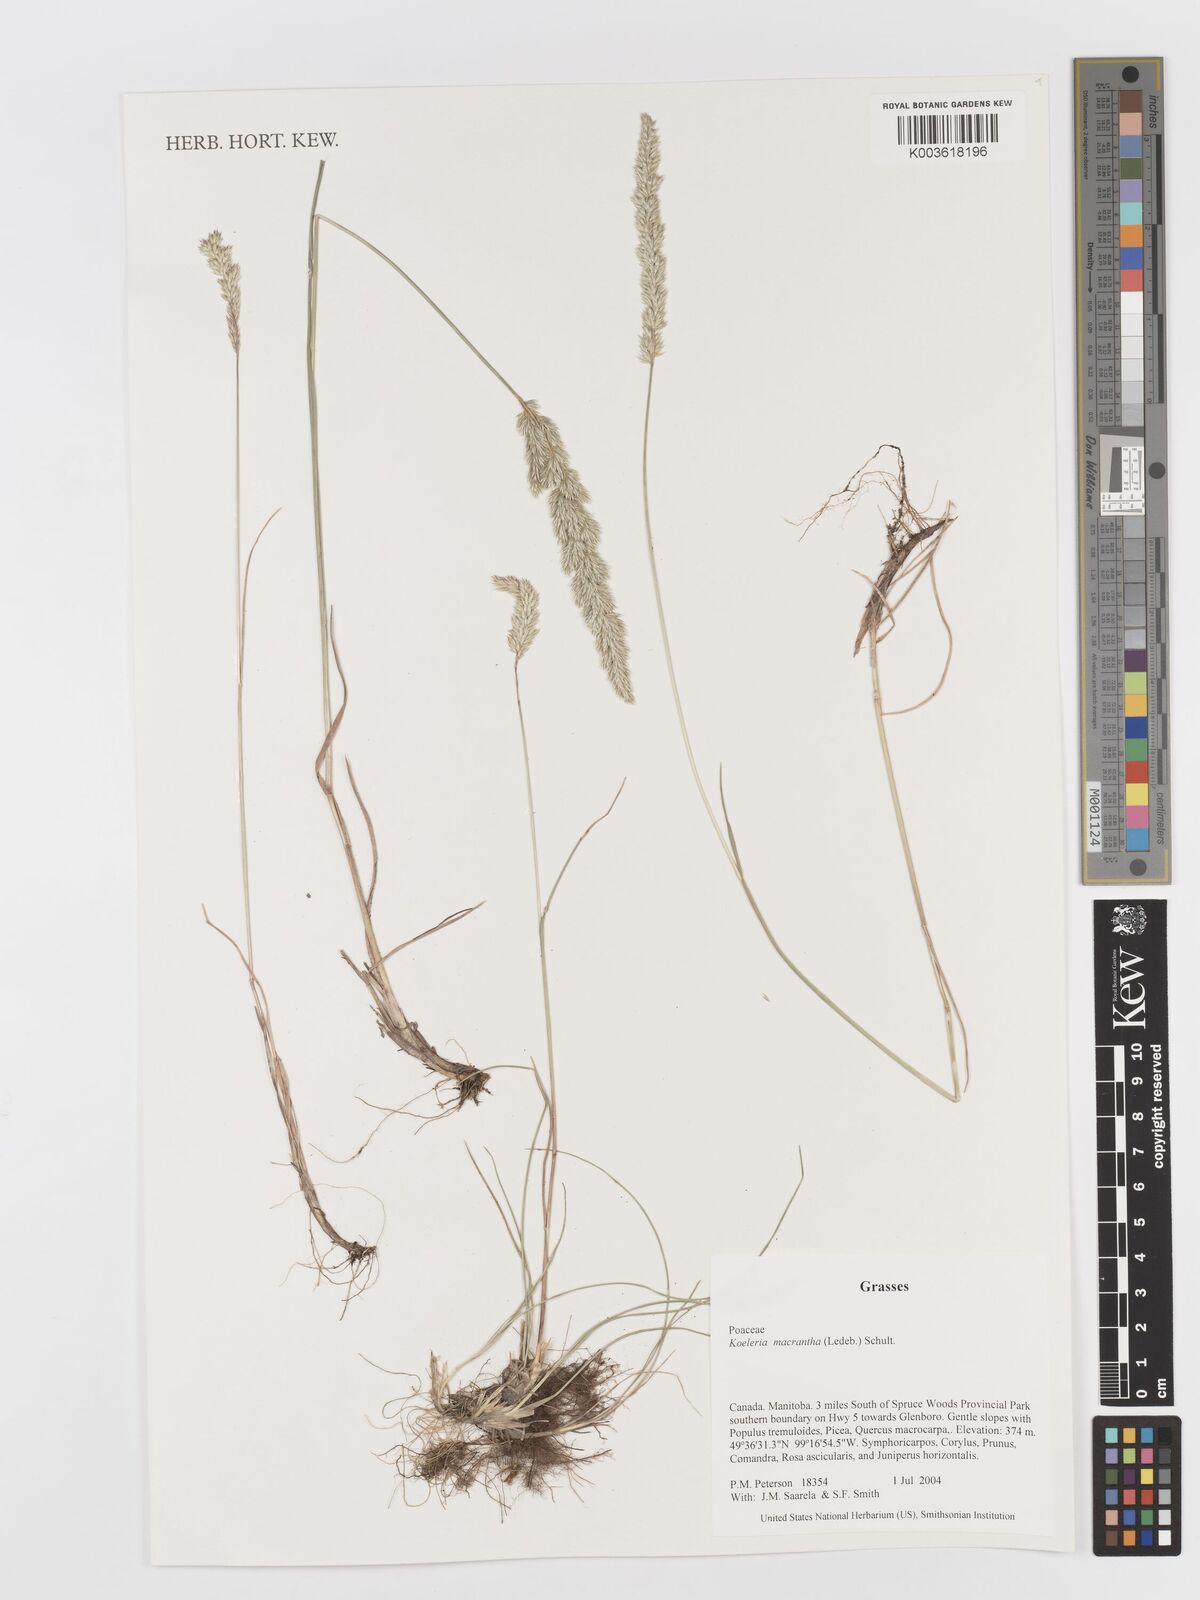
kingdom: Plantae
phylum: Tracheophyta
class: Liliopsida
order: Poales
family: Poaceae
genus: Koeleria
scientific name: Koeleria
